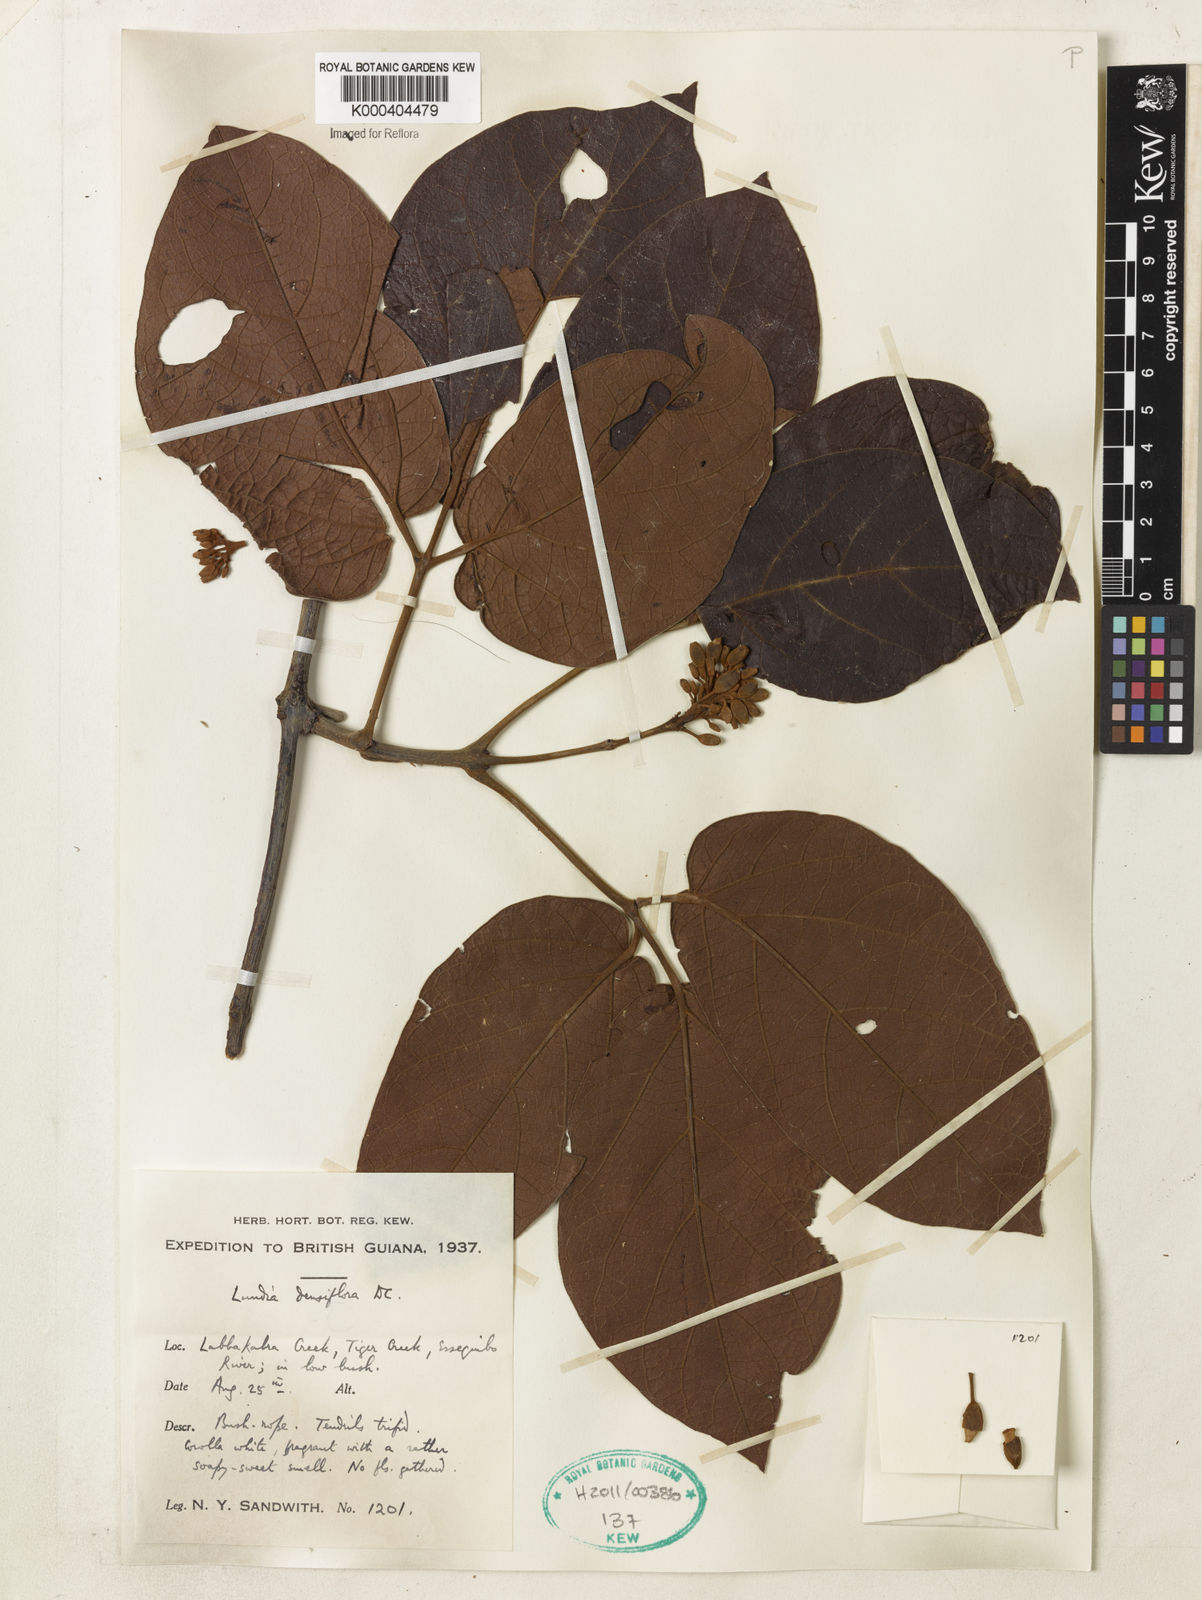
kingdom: Plantae
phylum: Tracheophyta
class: Magnoliopsida
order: Lamiales
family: Bignoniaceae
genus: Lundia
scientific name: Lundia densiflora
